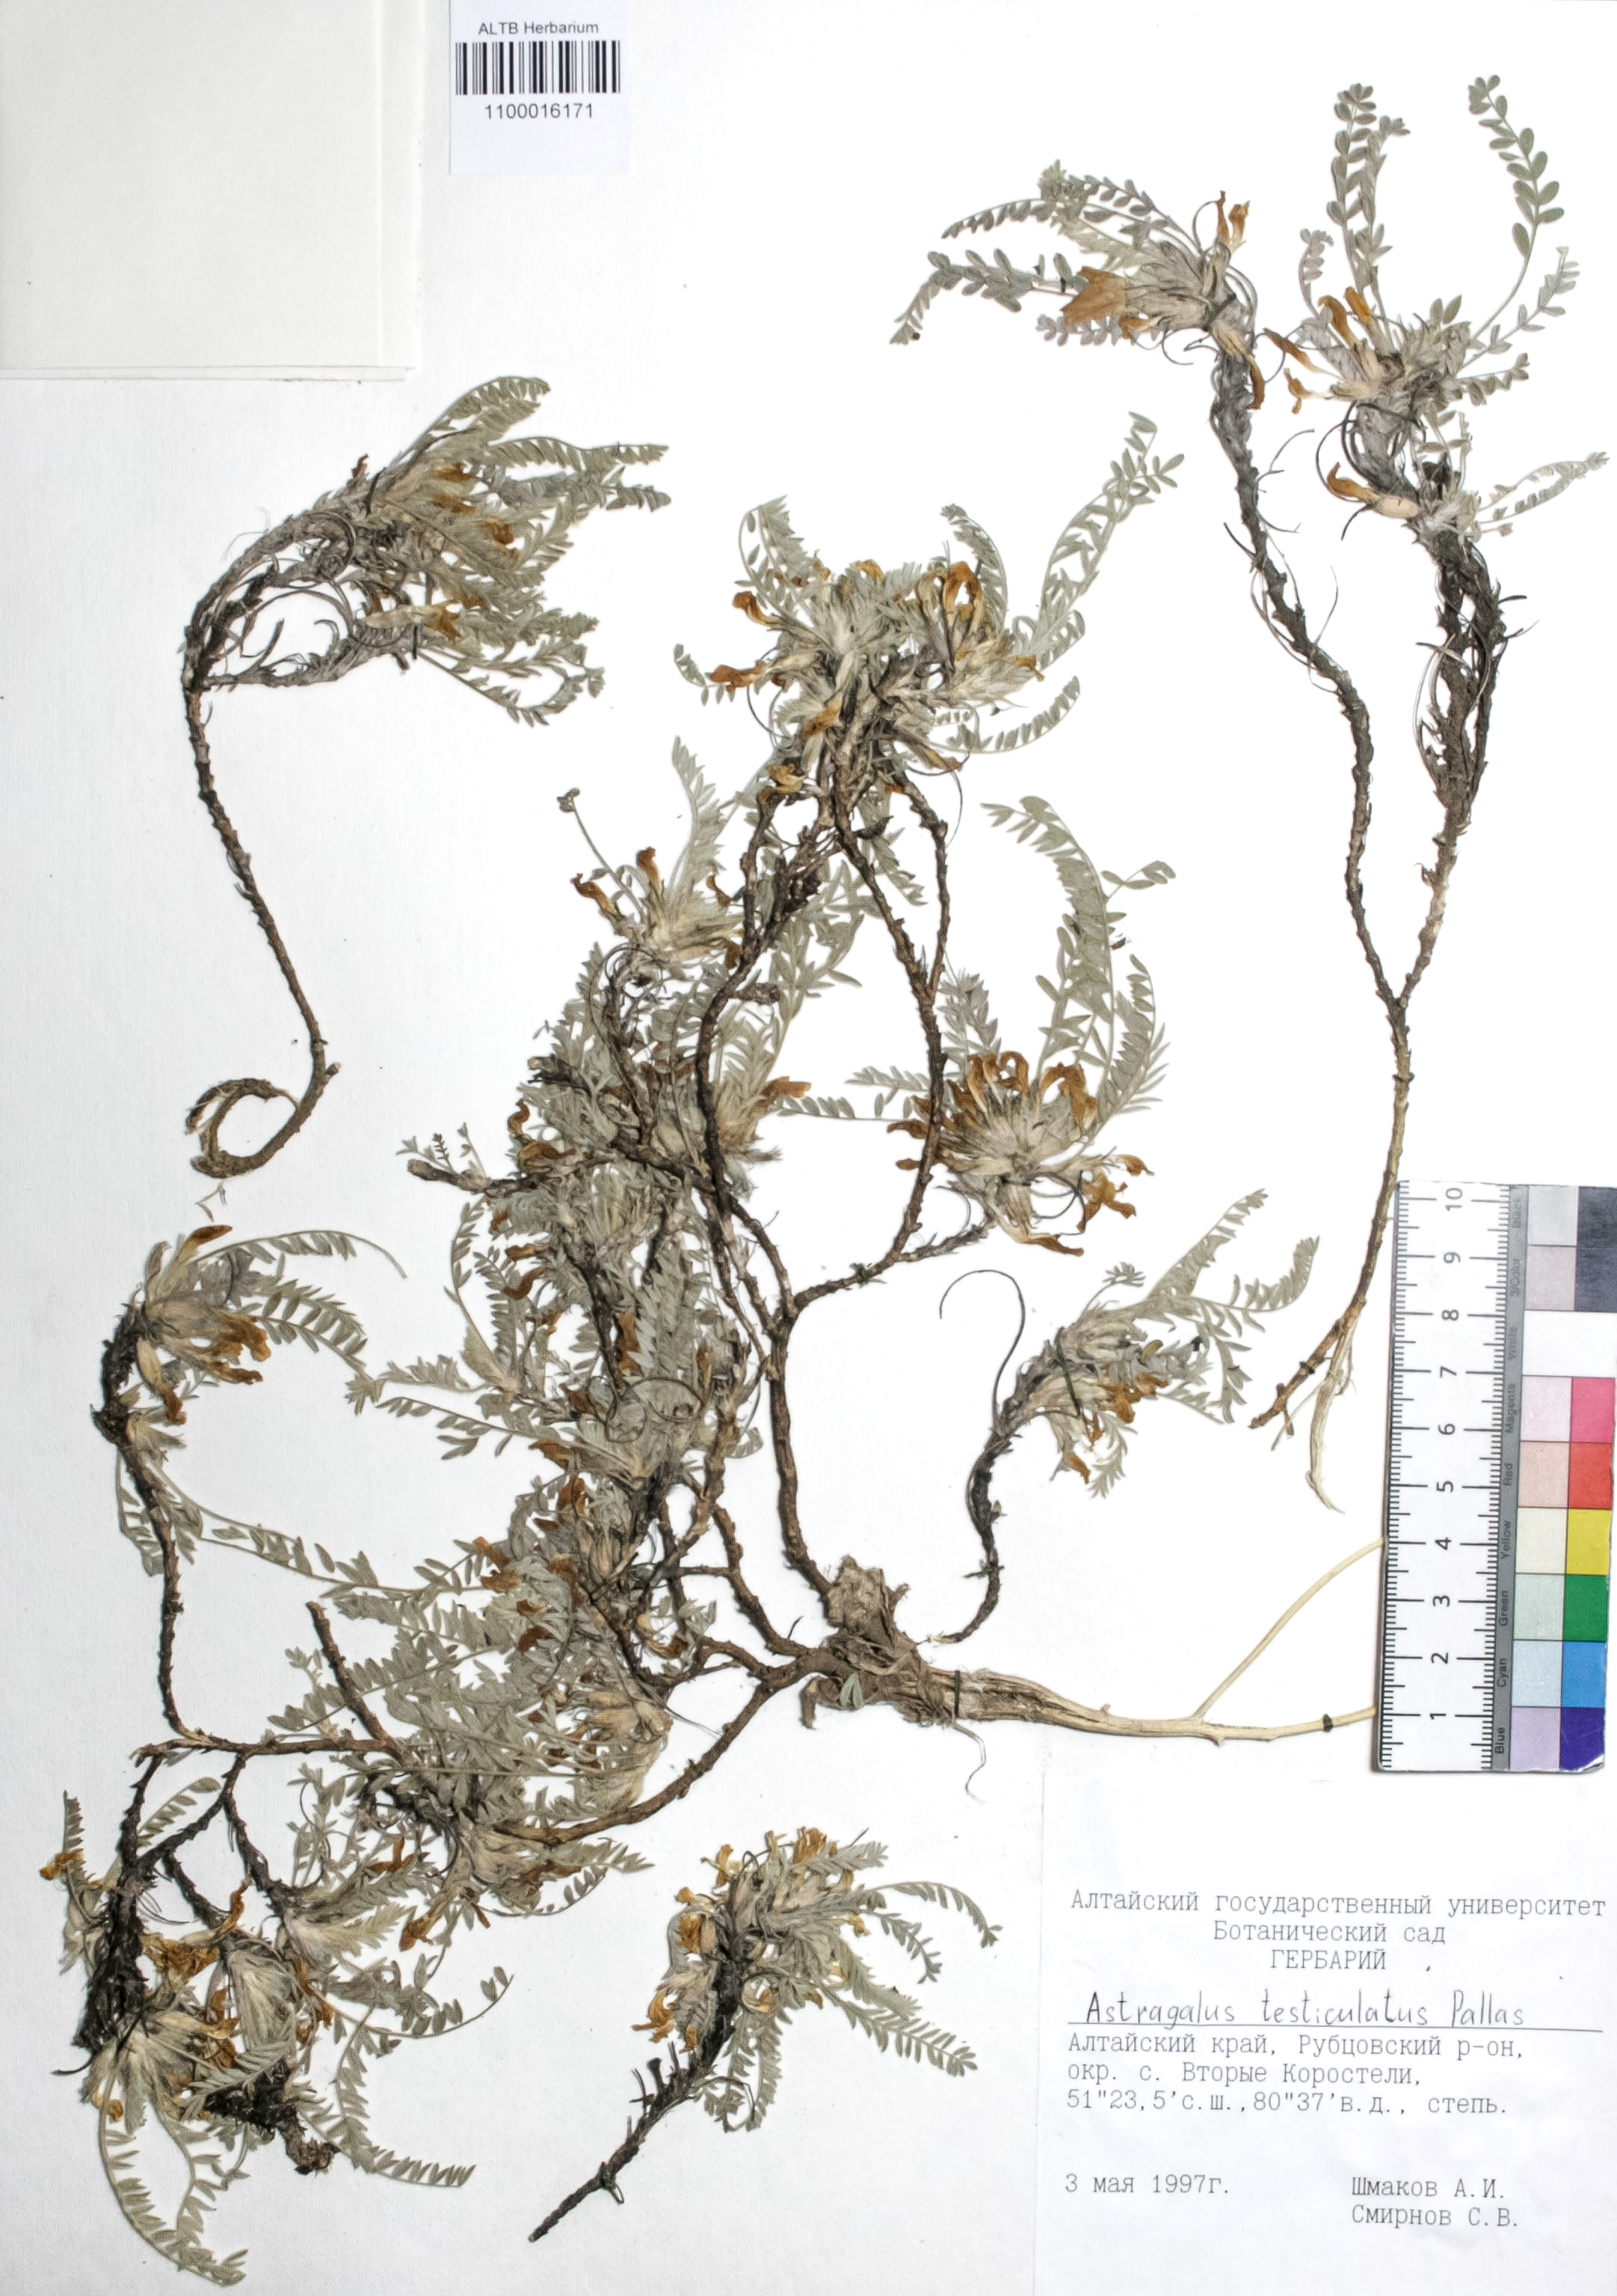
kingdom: Plantae
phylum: Tracheophyta
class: Magnoliopsida
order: Fabales
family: Fabaceae
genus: Astragalus
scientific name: Astragalus testiculatus
